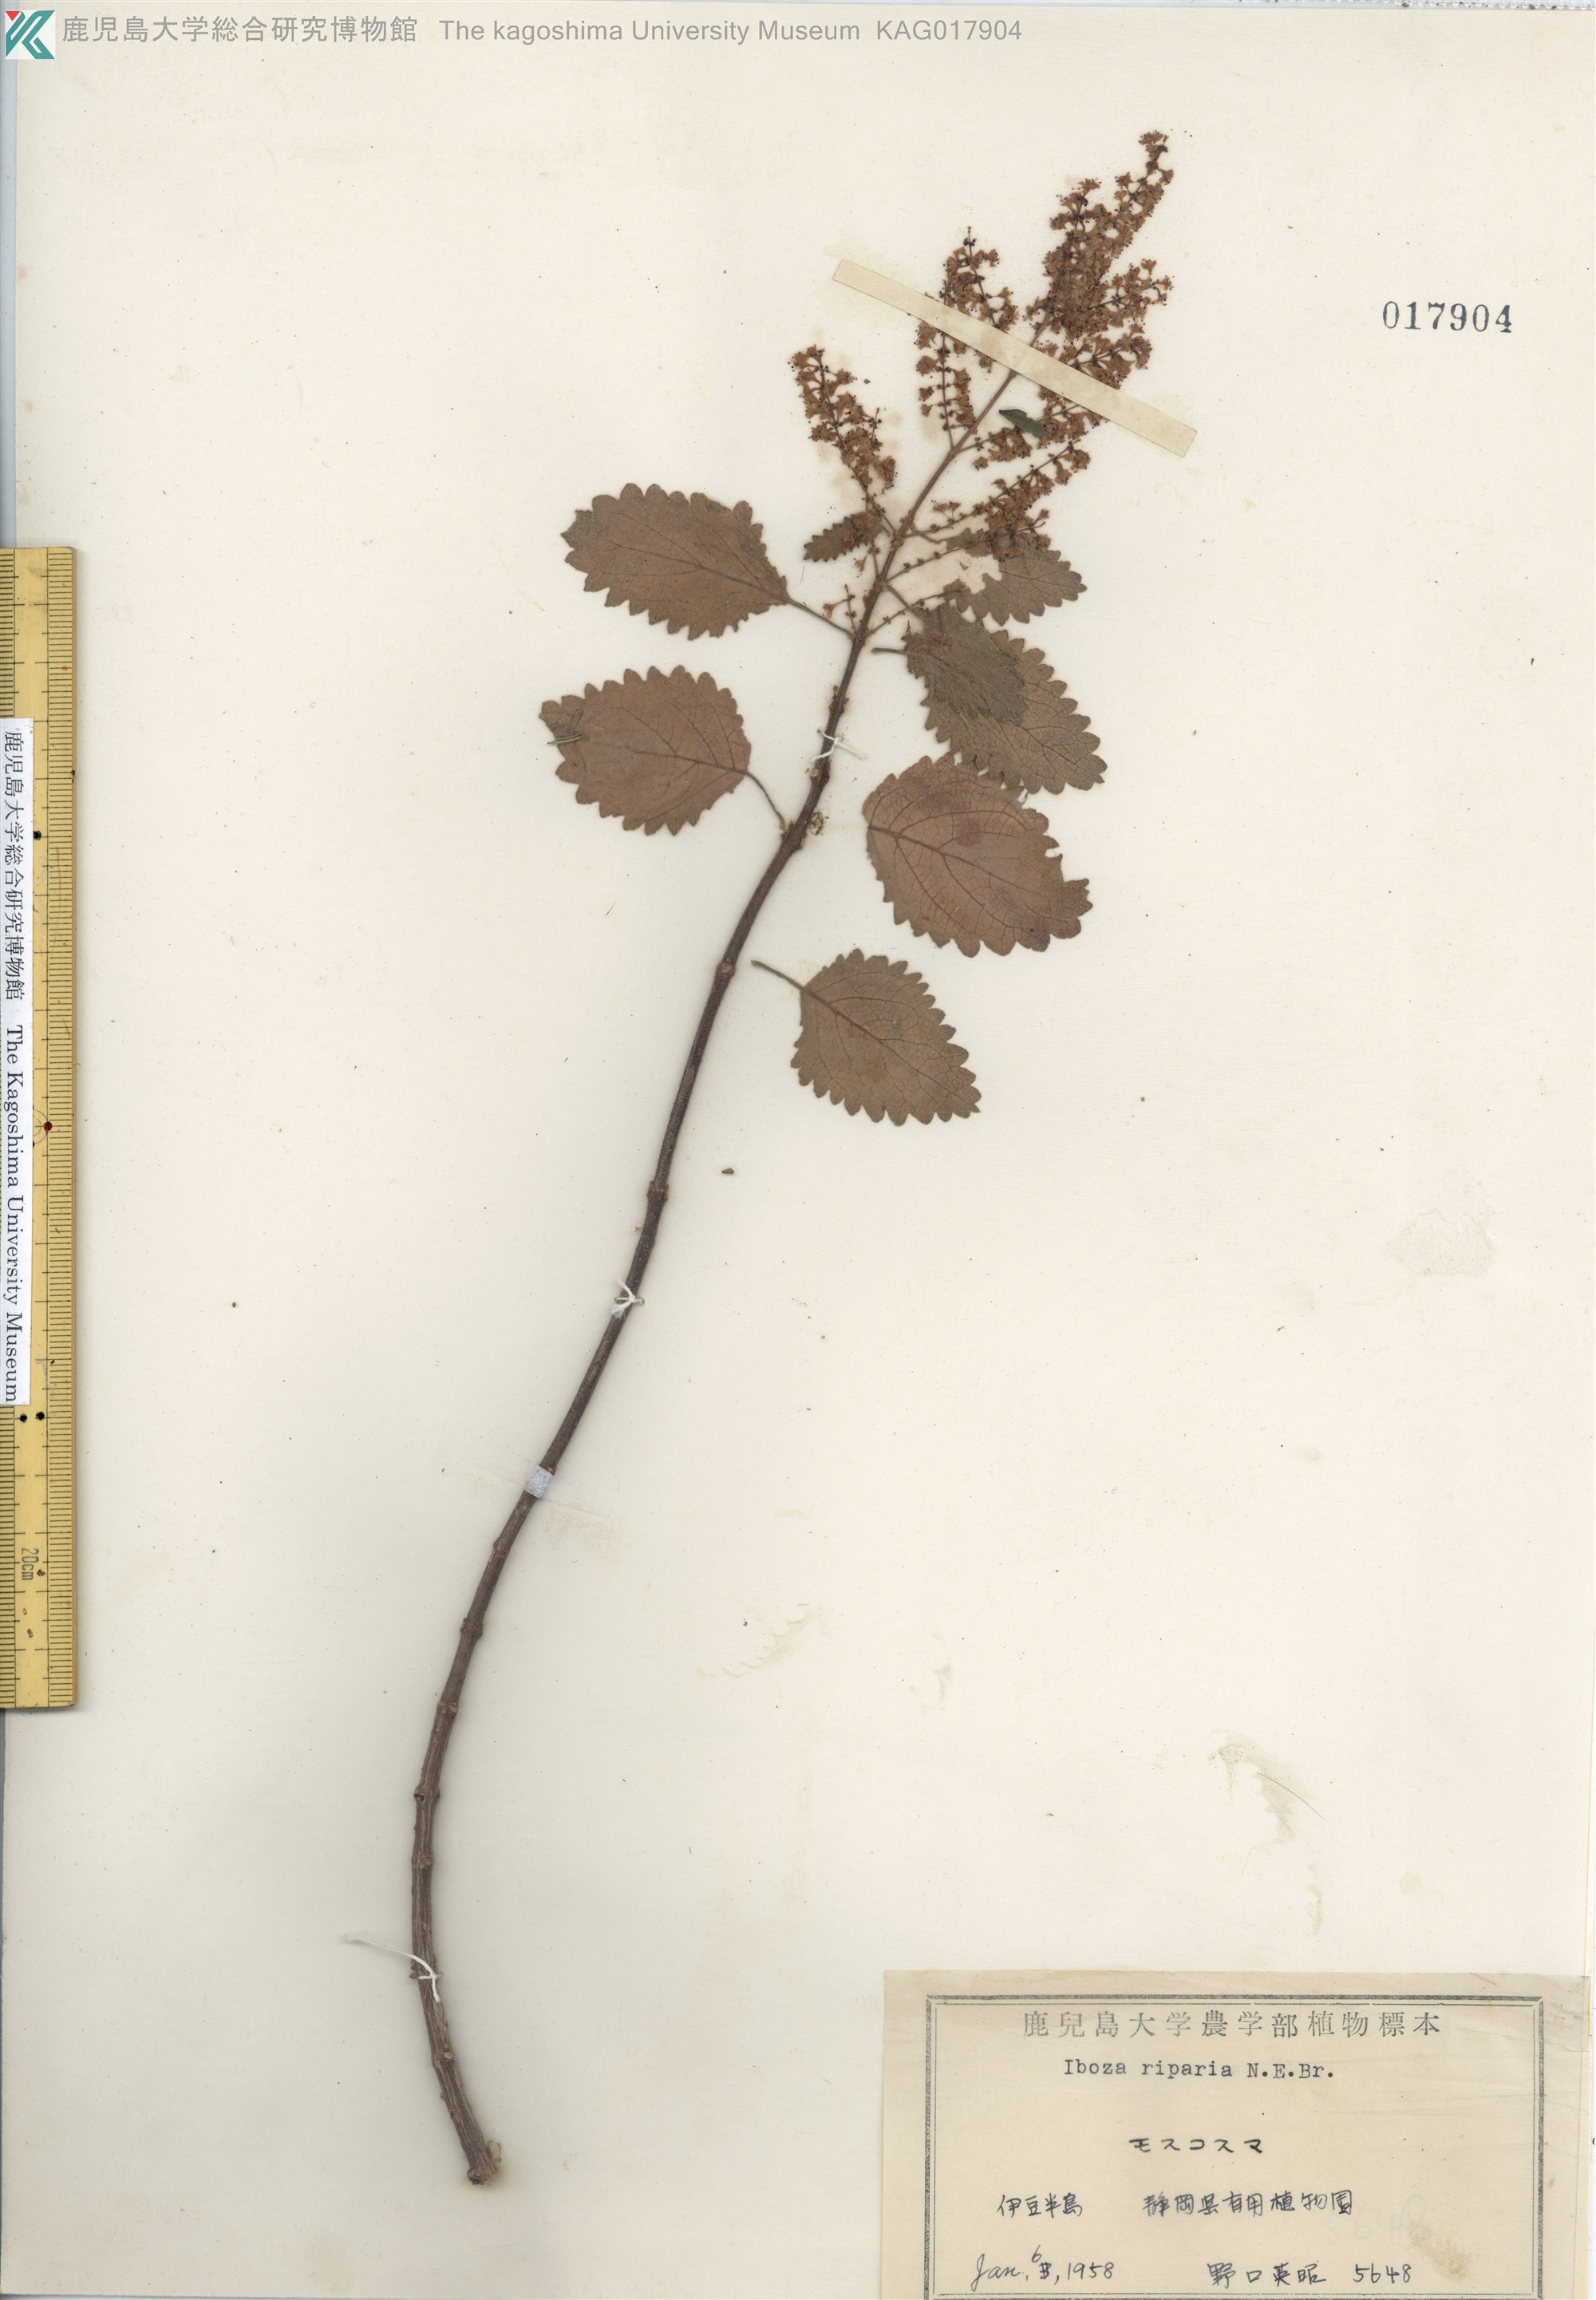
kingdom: Plantae
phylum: Tracheophyta
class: Magnoliopsida
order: Lamiales
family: Lamiaceae
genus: Tetradenia
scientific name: Tetradenia riparia
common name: Gingerbush
